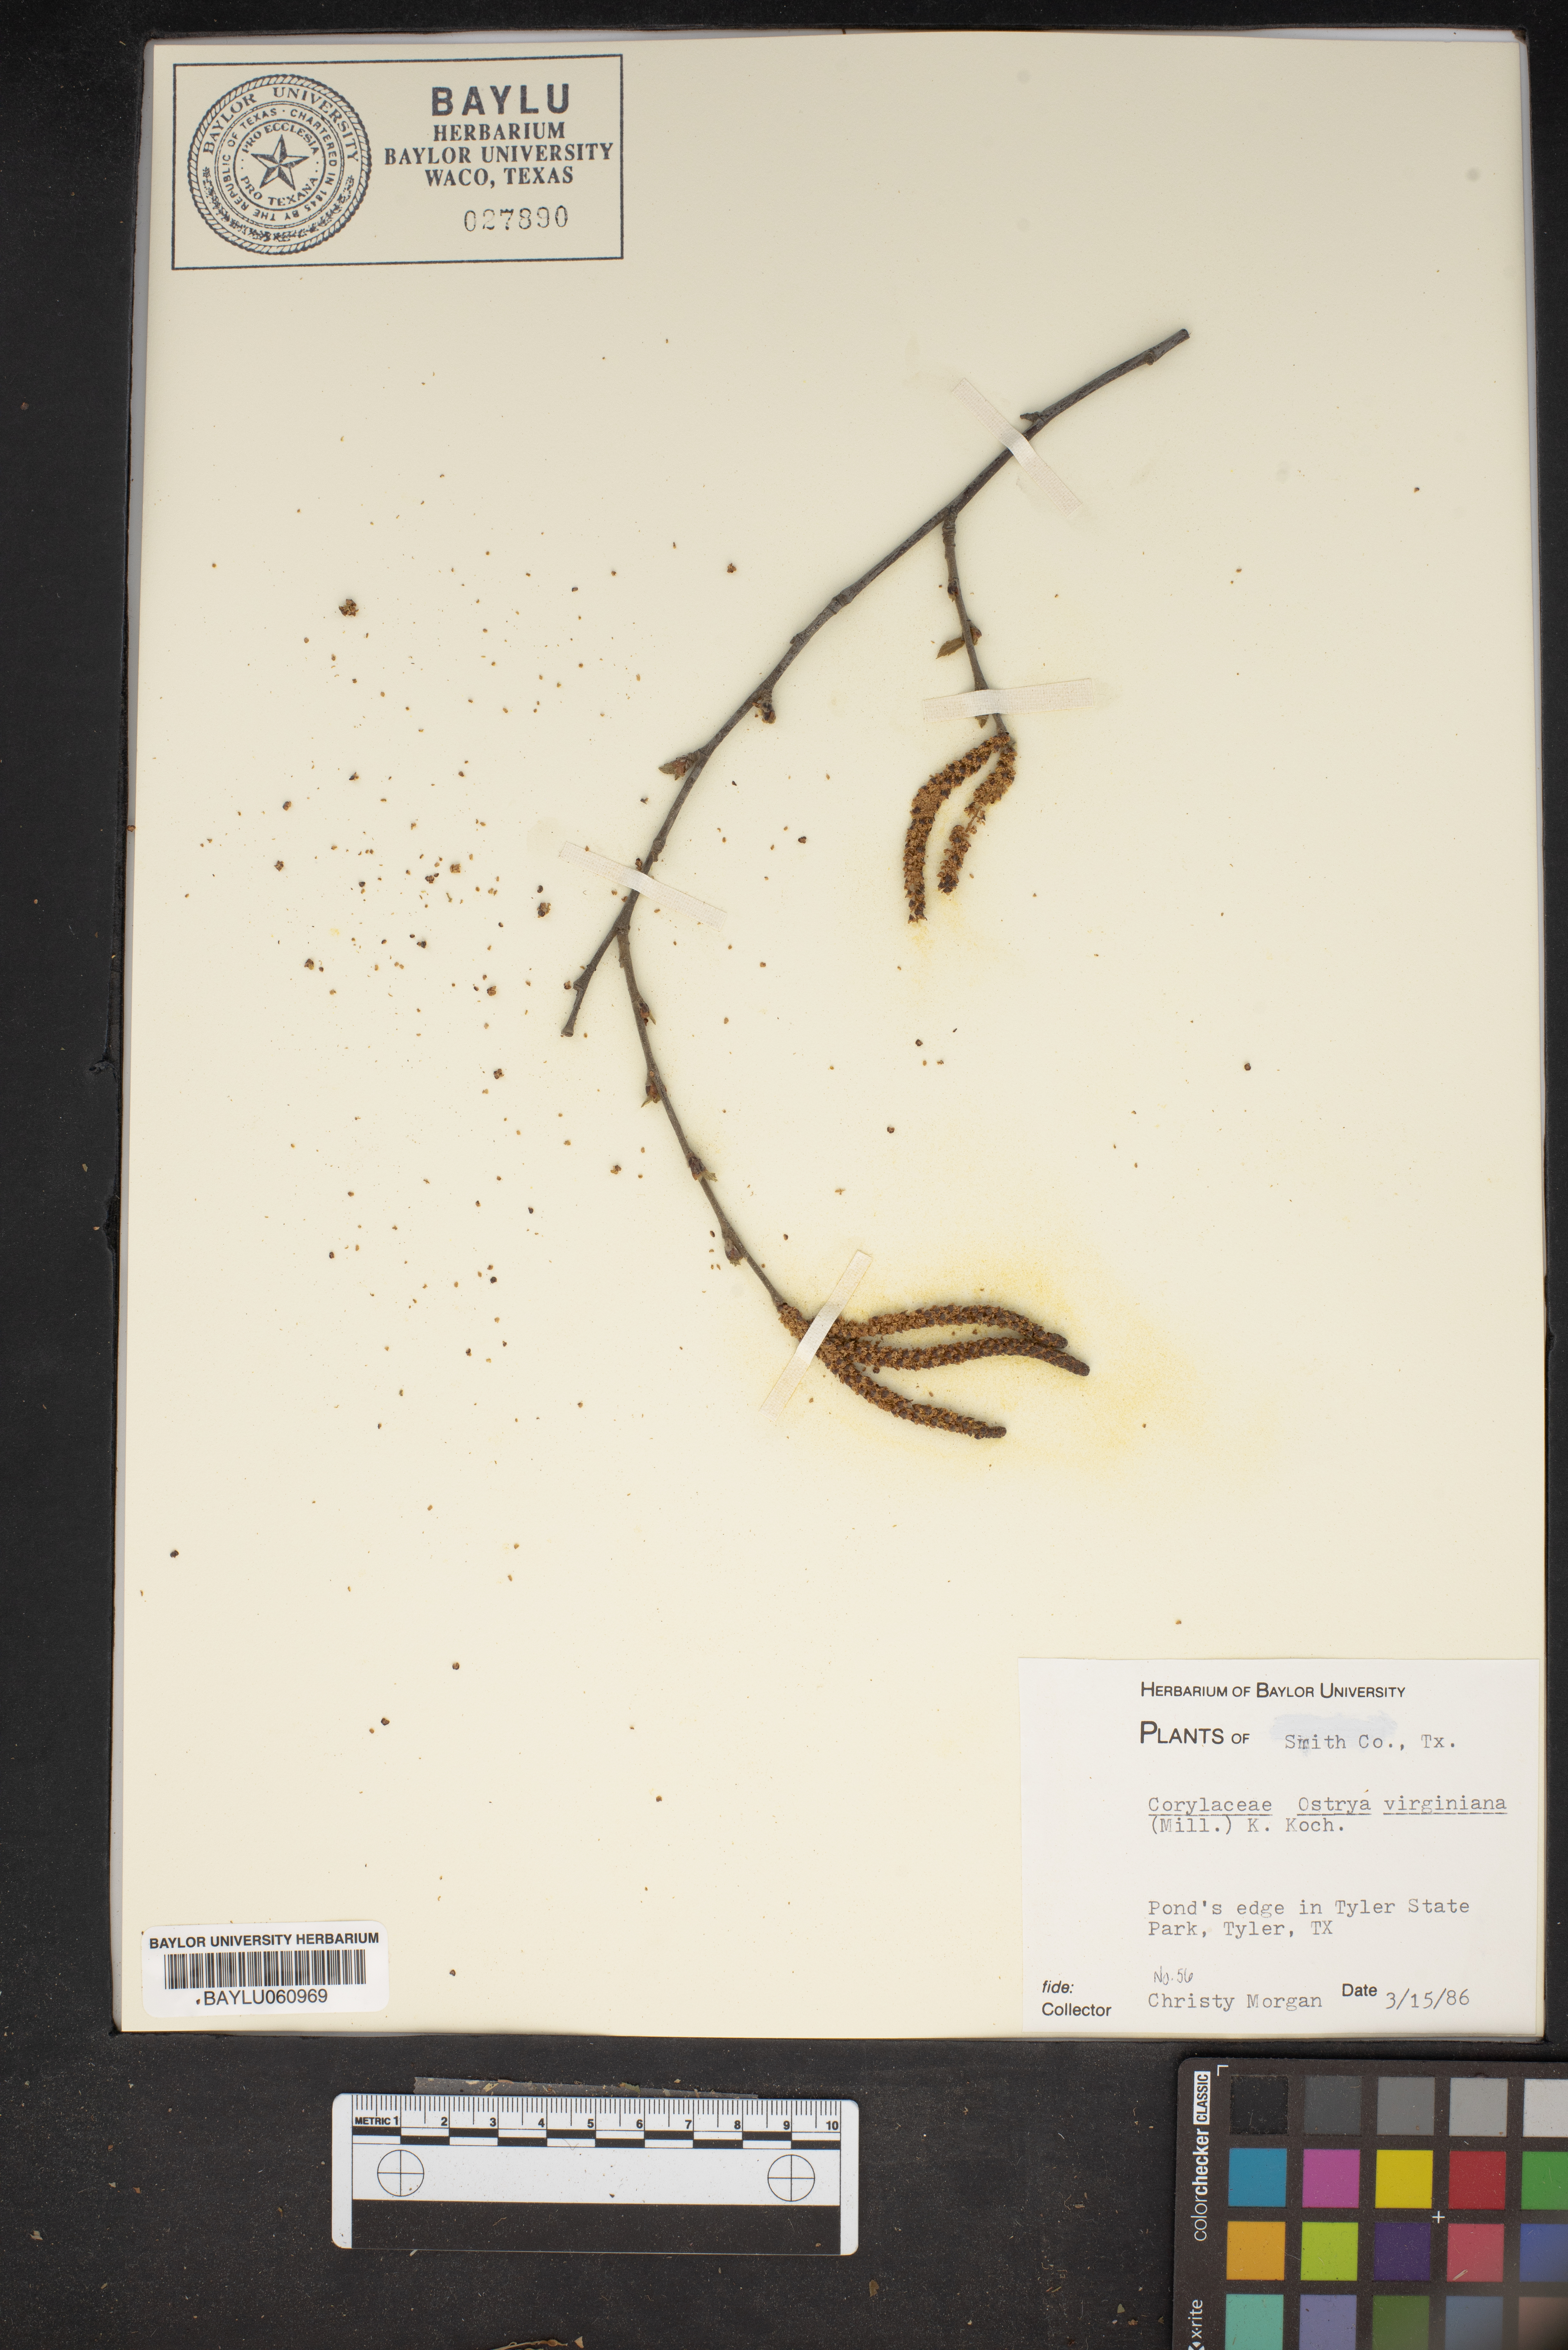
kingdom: Plantae
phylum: Tracheophyta
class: Magnoliopsida
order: Fagales
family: Betulaceae
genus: Ostrya
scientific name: Ostrya virginiana
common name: Ironwood
